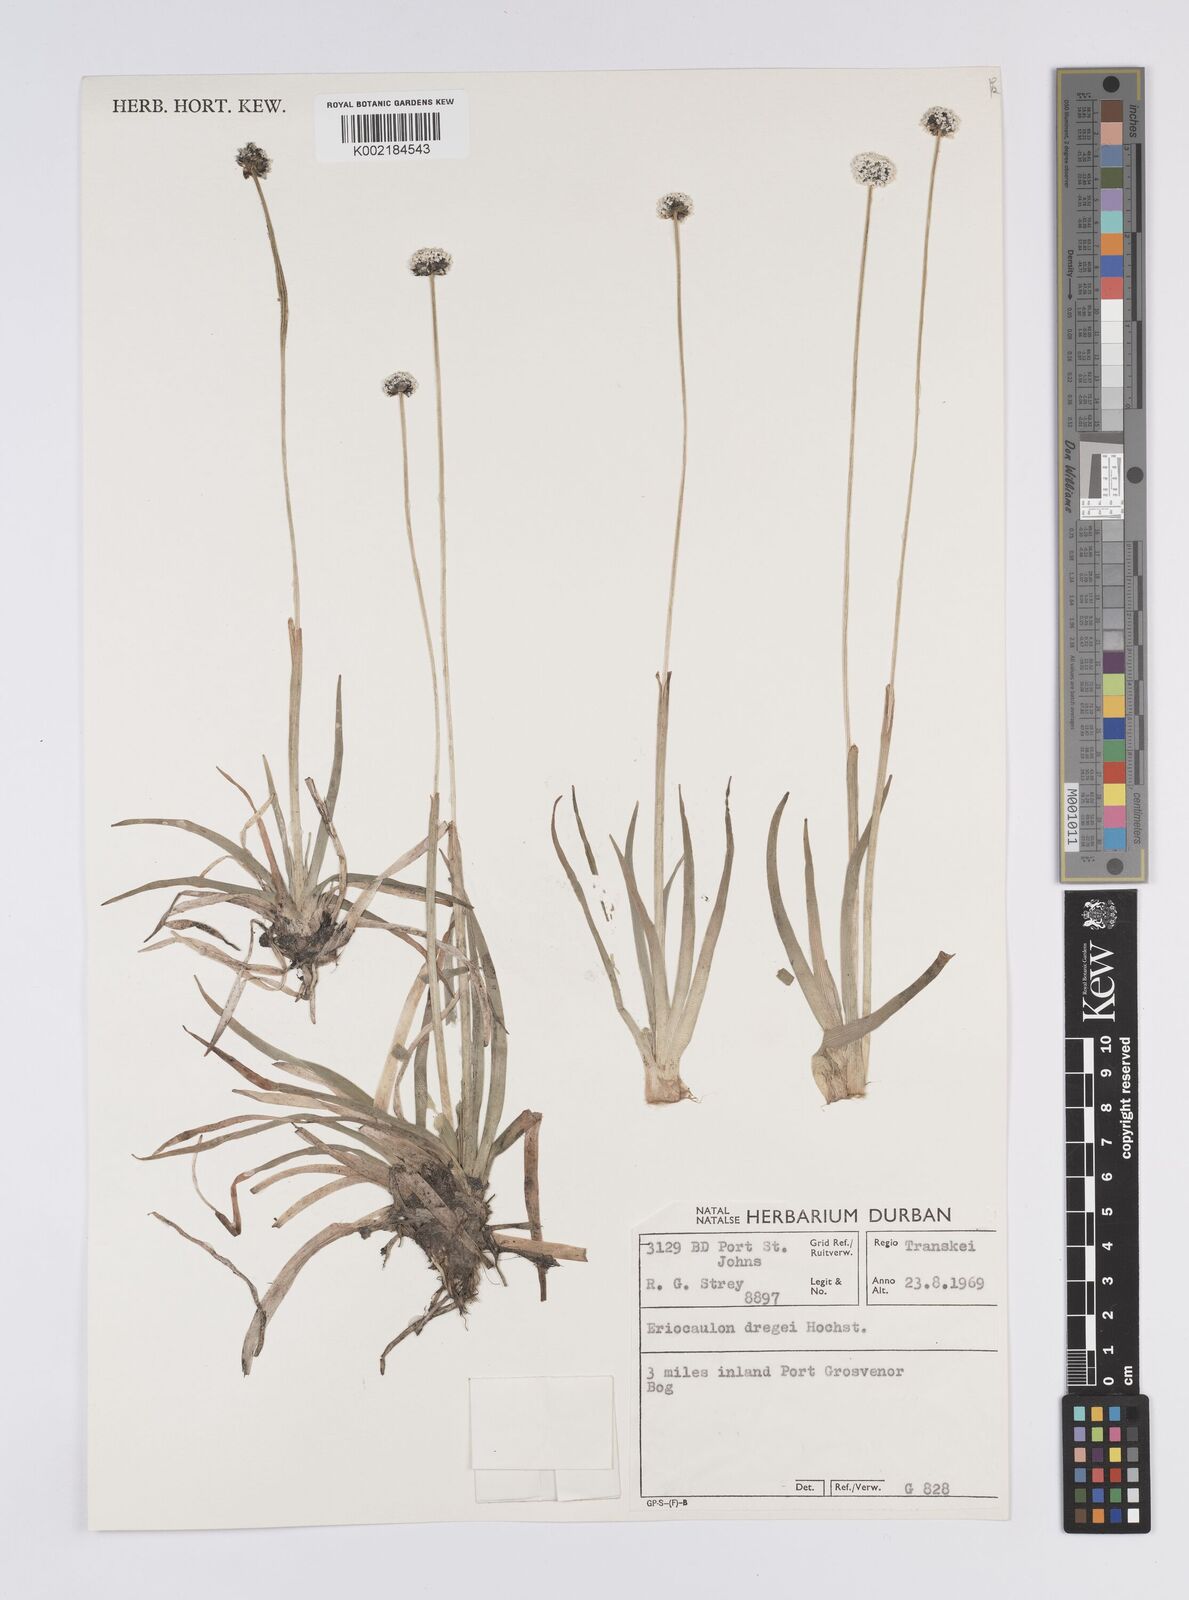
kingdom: Plantae
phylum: Tracheophyta
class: Liliopsida
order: Poales
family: Eriocaulaceae
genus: Eriocaulon
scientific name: Eriocaulon dregei
